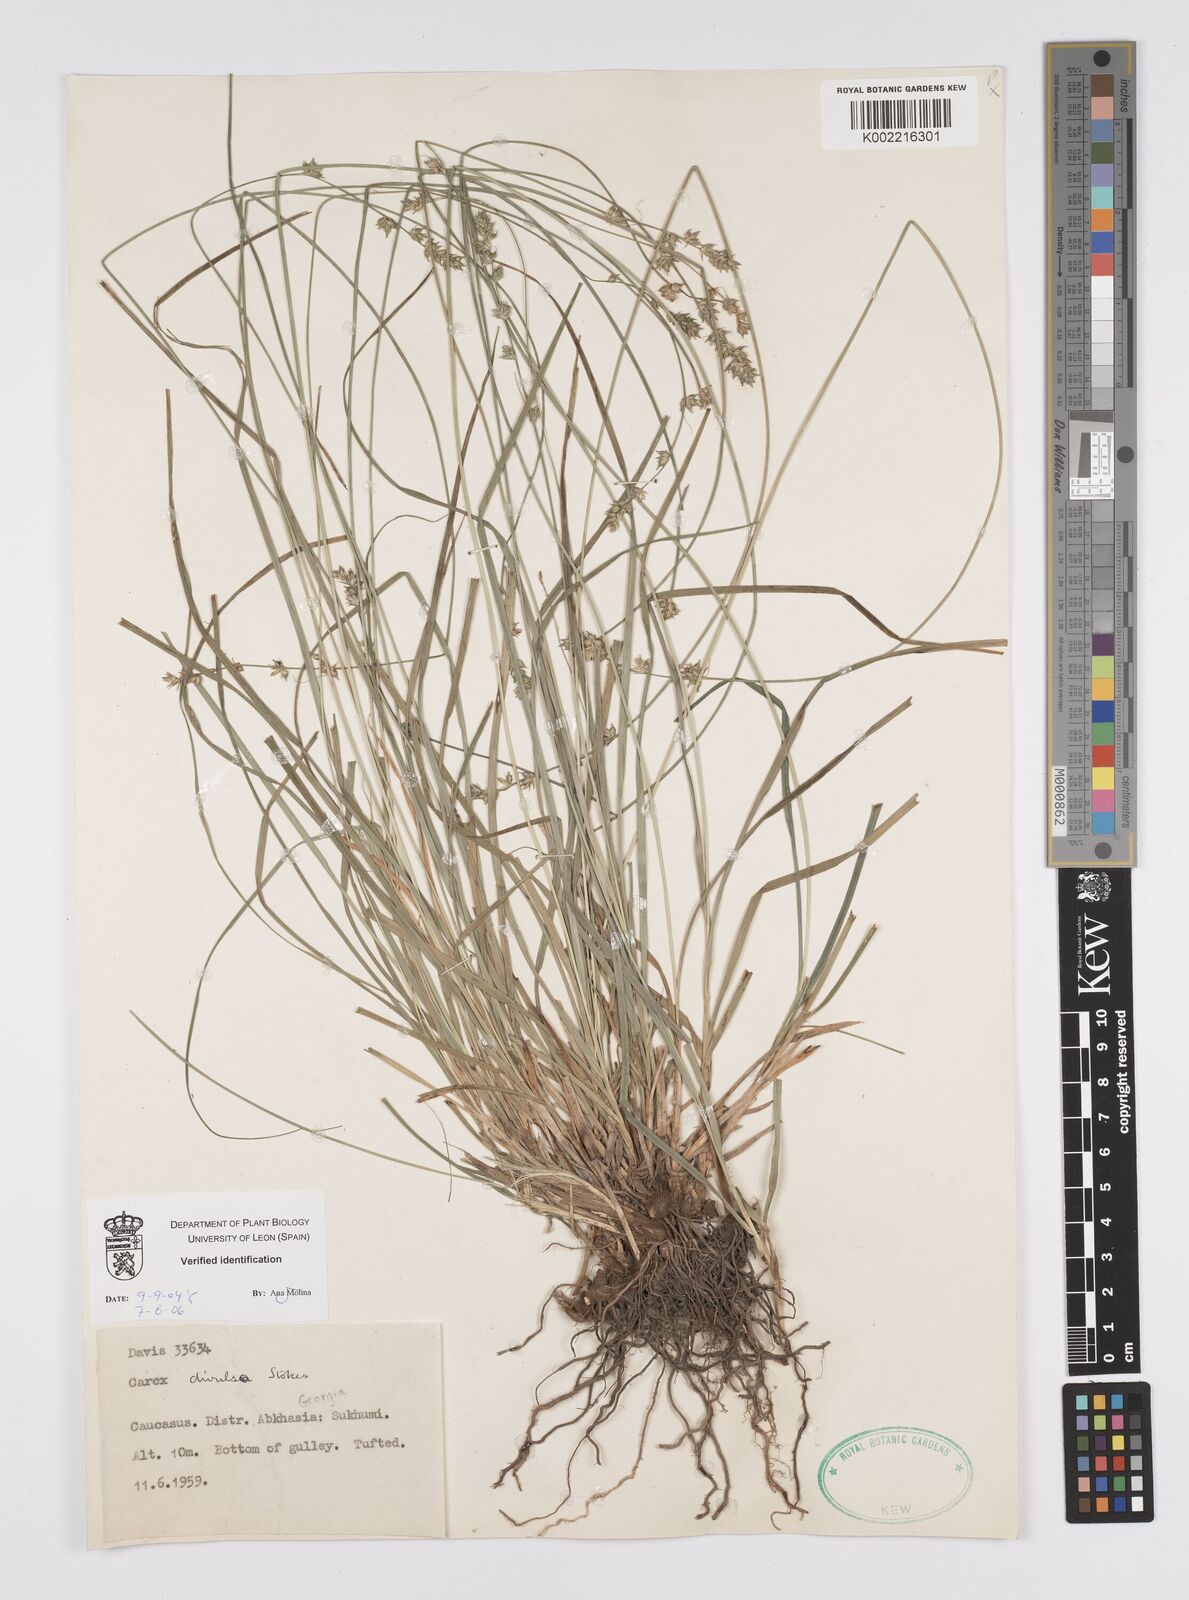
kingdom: Plantae
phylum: Tracheophyta
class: Liliopsida
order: Poales
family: Cyperaceae
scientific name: Cyperaceae
